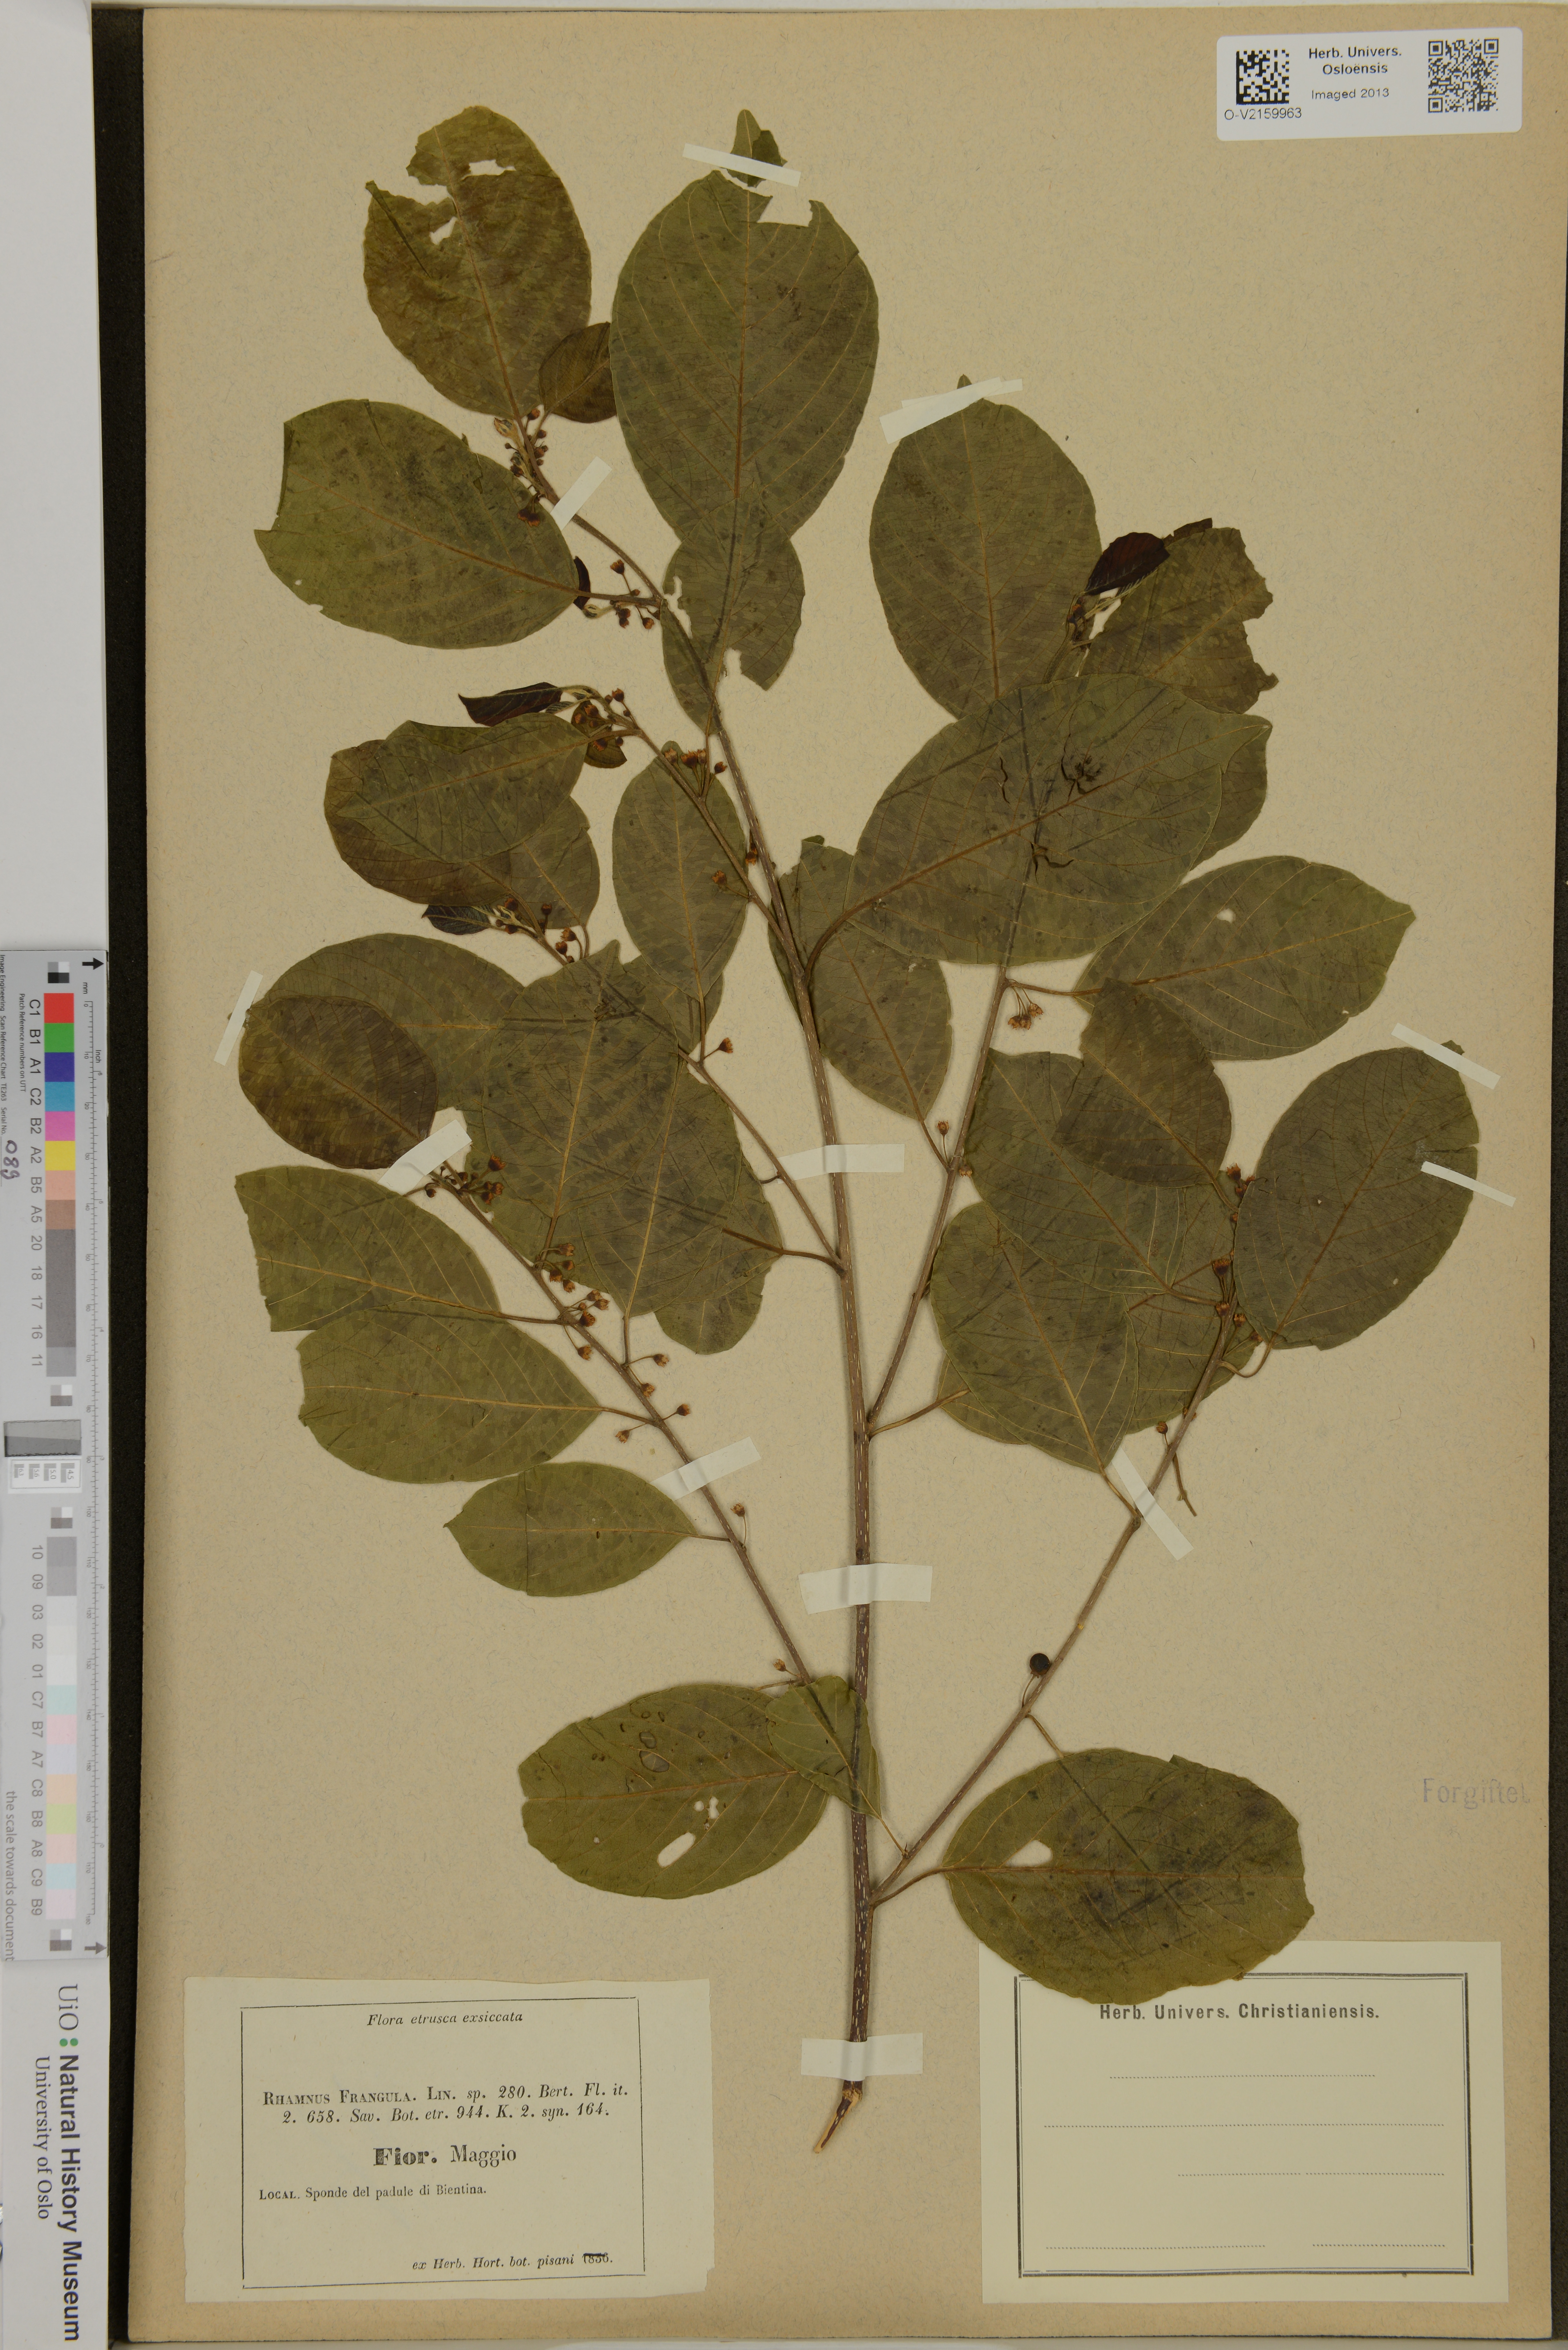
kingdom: Plantae
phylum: Tracheophyta
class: Magnoliopsida
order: Rosales
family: Rhamnaceae
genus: Frangula
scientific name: Frangula alnus
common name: Alder buckthorn
